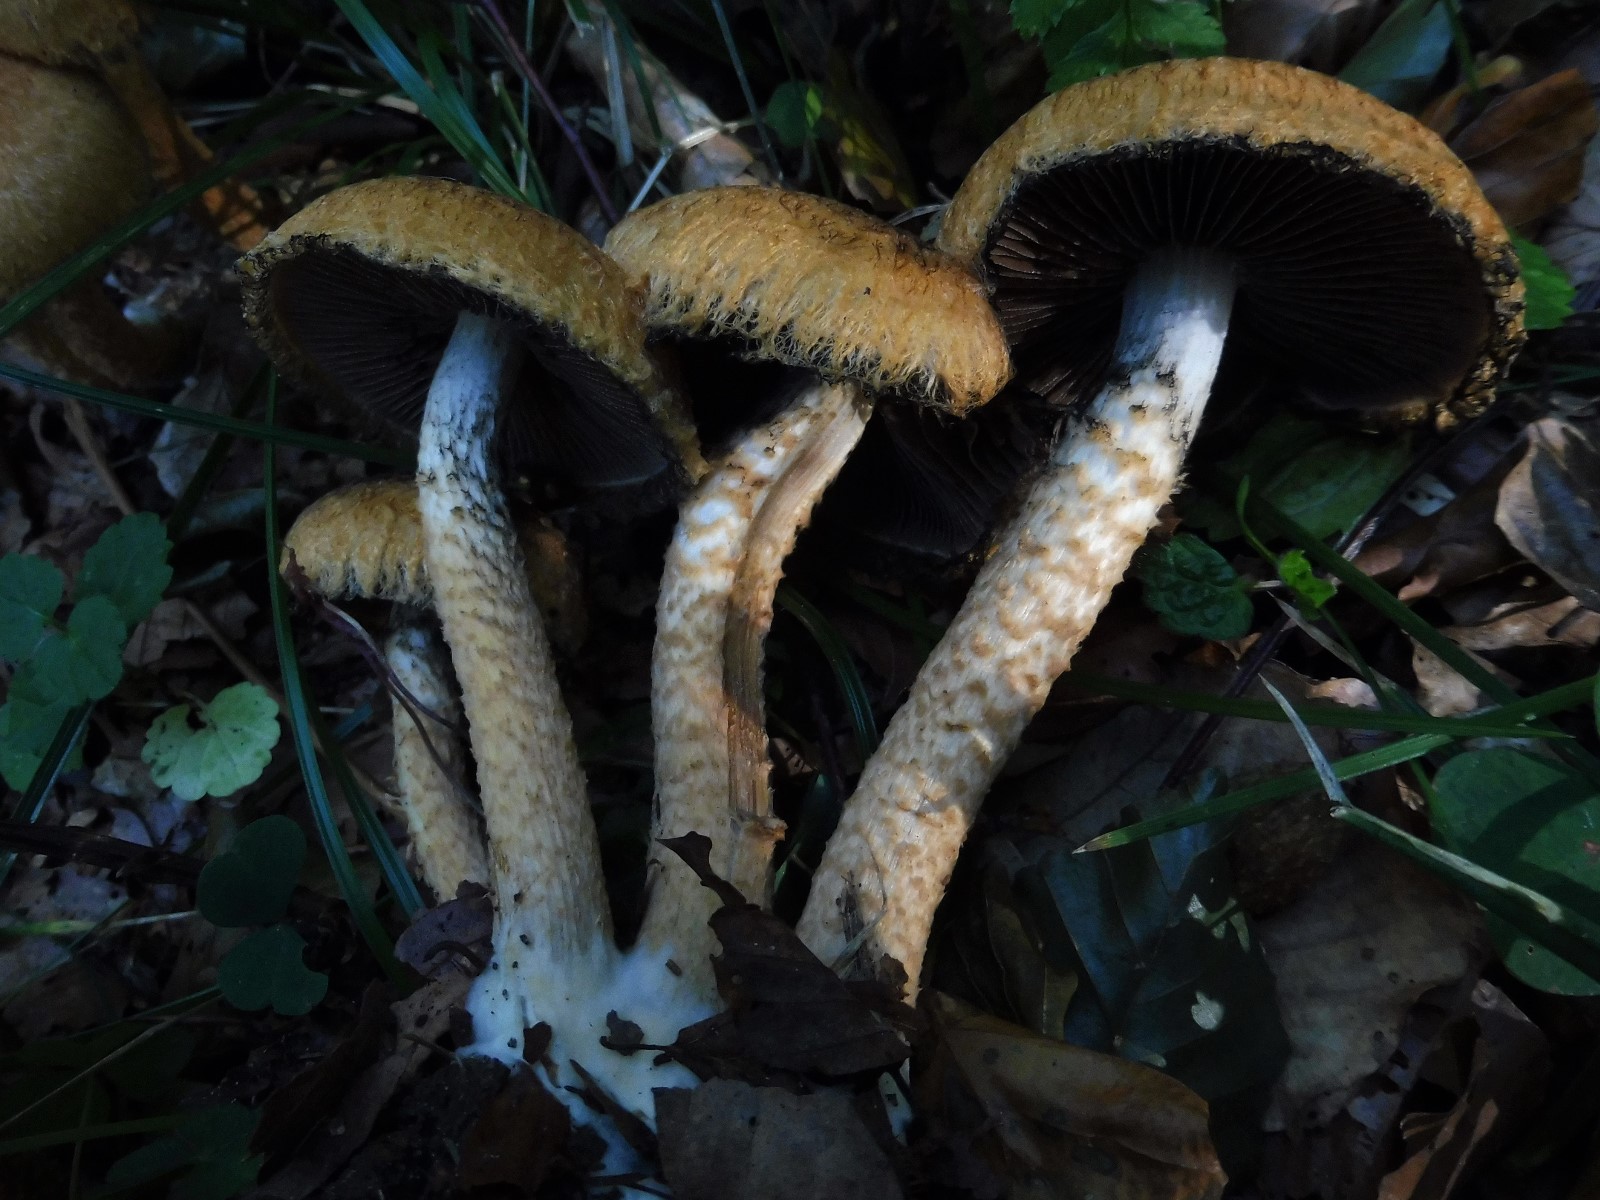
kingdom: Fungi
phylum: Basidiomycota
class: Agaricomycetes
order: Agaricales
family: Psathyrellaceae
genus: Lacrymaria
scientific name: Lacrymaria pyrotricha
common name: ildhåret mørkhat
